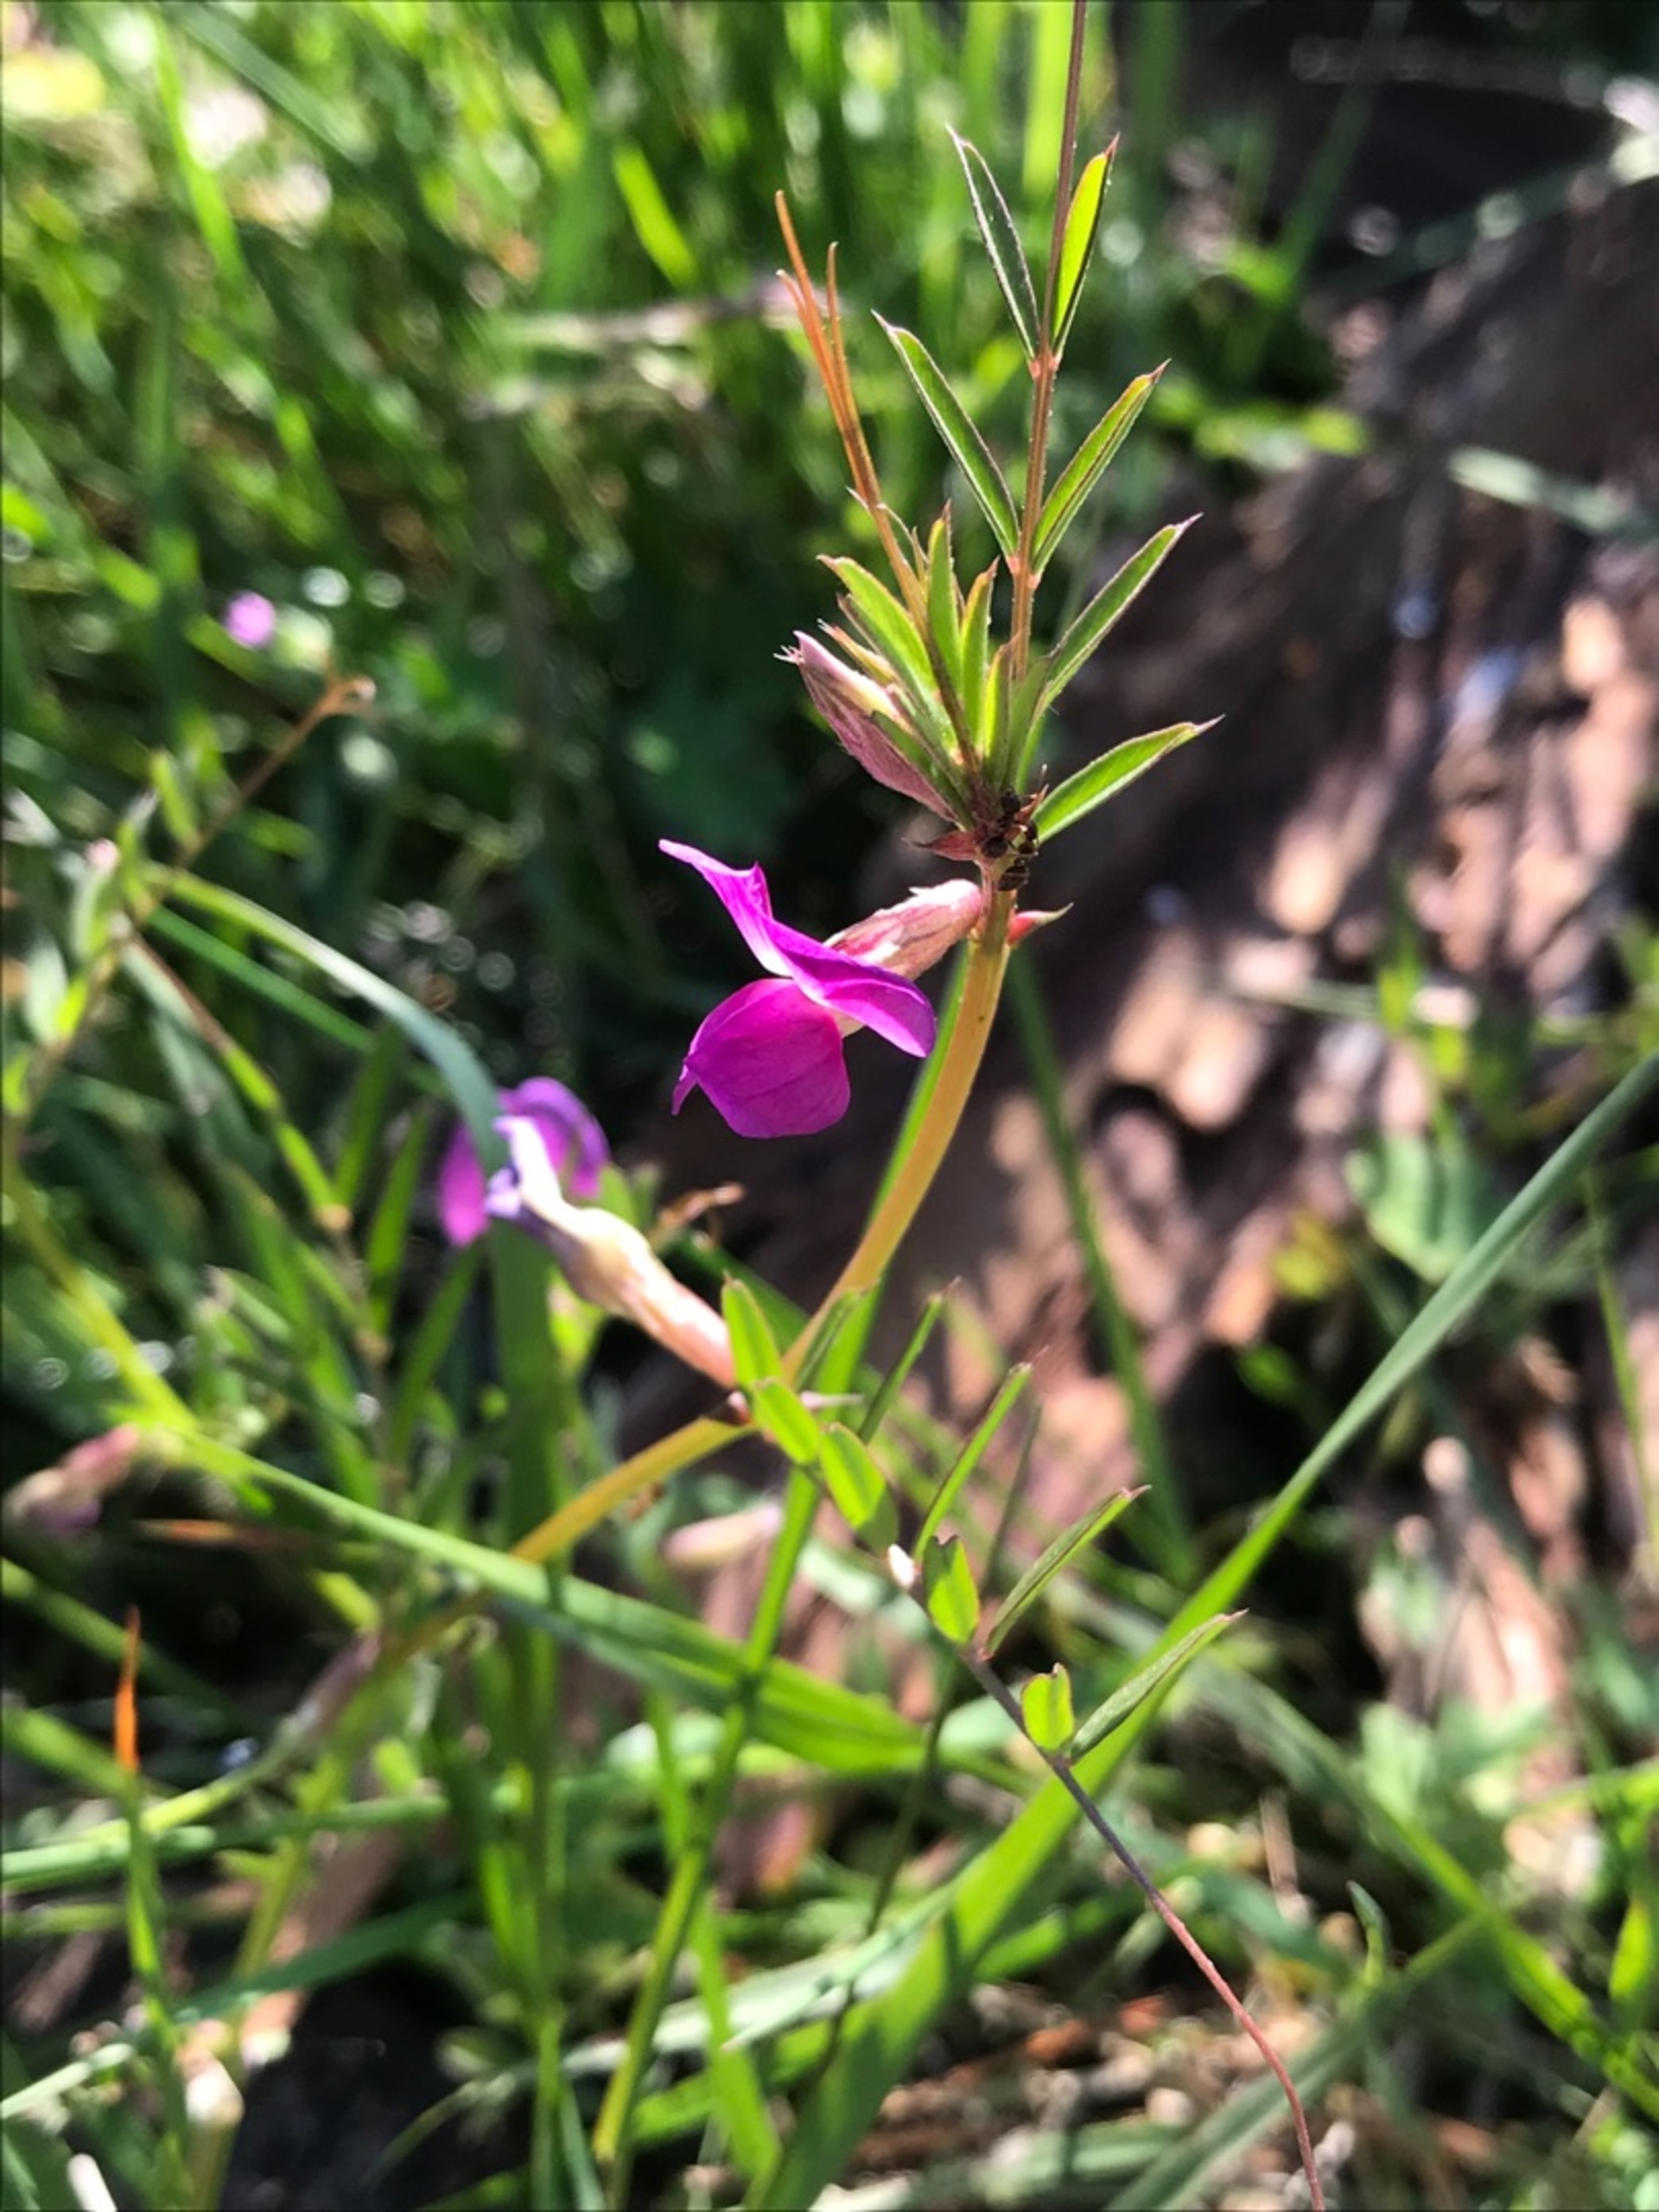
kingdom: Plantae
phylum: Tracheophyta
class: Magnoliopsida
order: Fabales
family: Fabaceae
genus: Vicia
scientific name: Vicia sativa
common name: Foder-vikke
